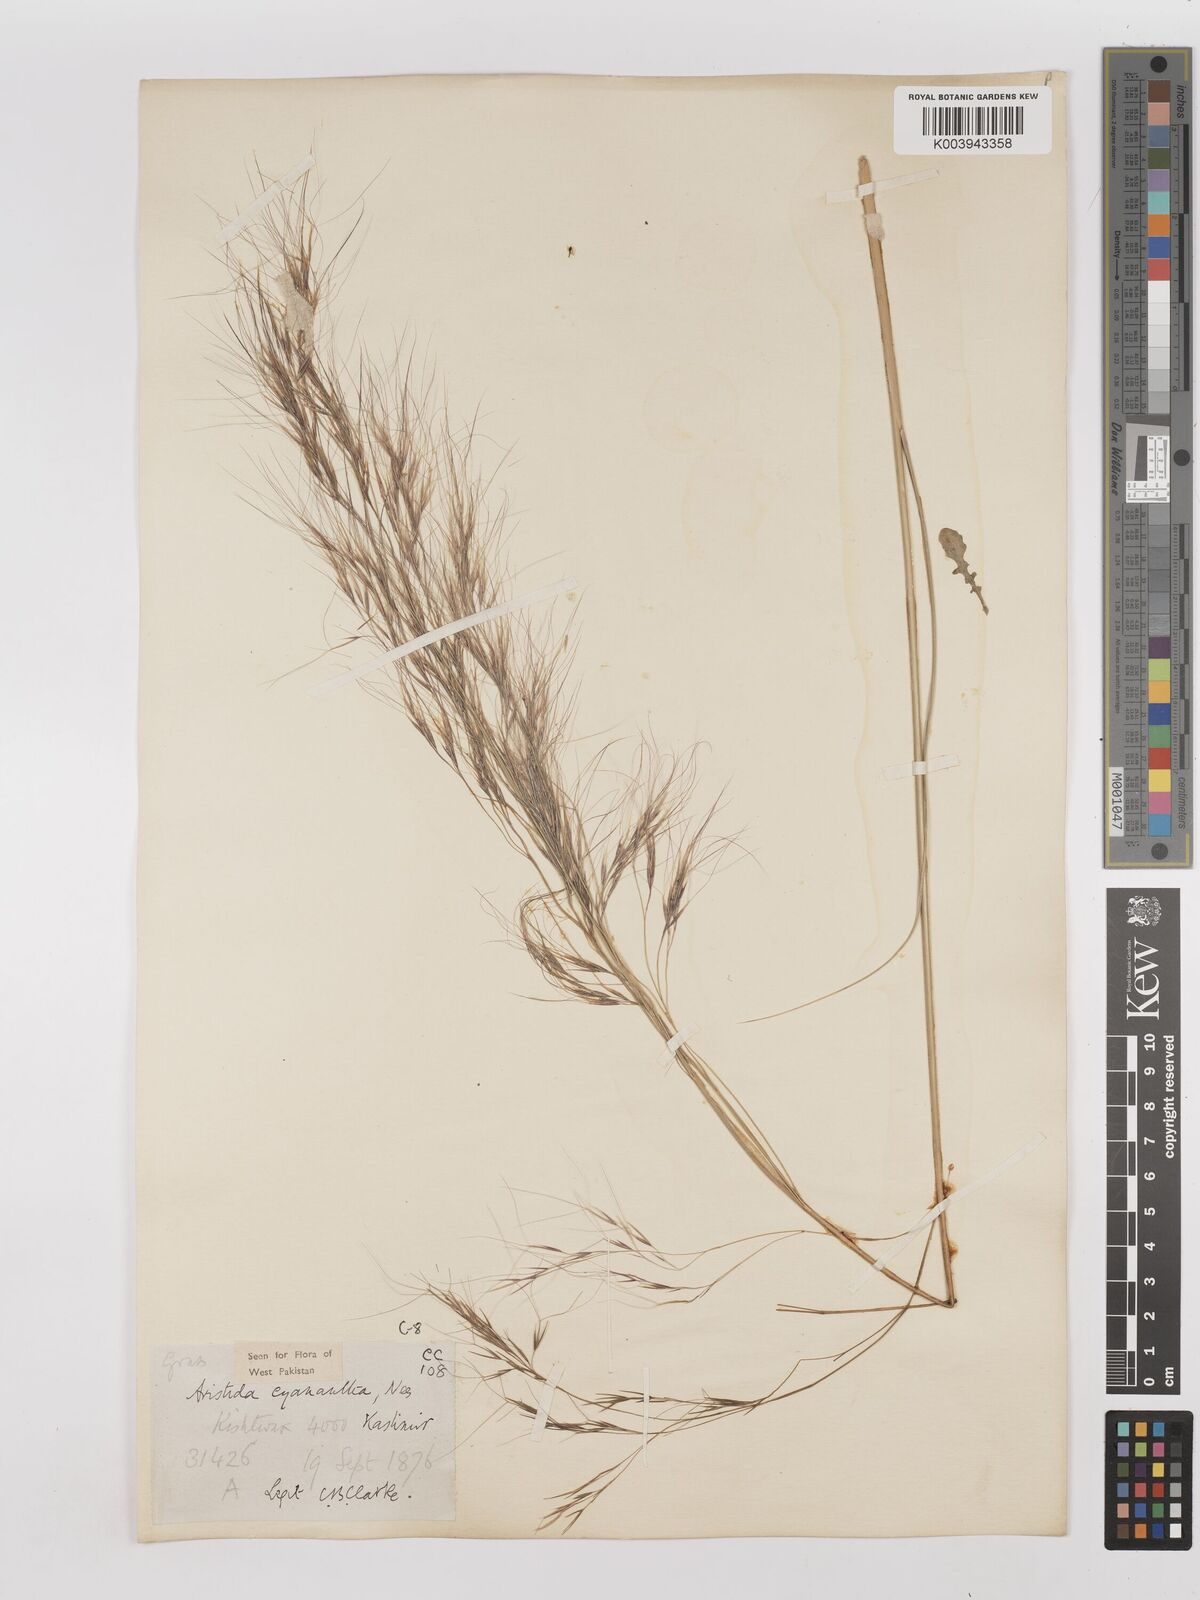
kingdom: Plantae
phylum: Tracheophyta
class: Liliopsida
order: Poales
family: Poaceae
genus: Aristida
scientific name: Aristida cyanantha
